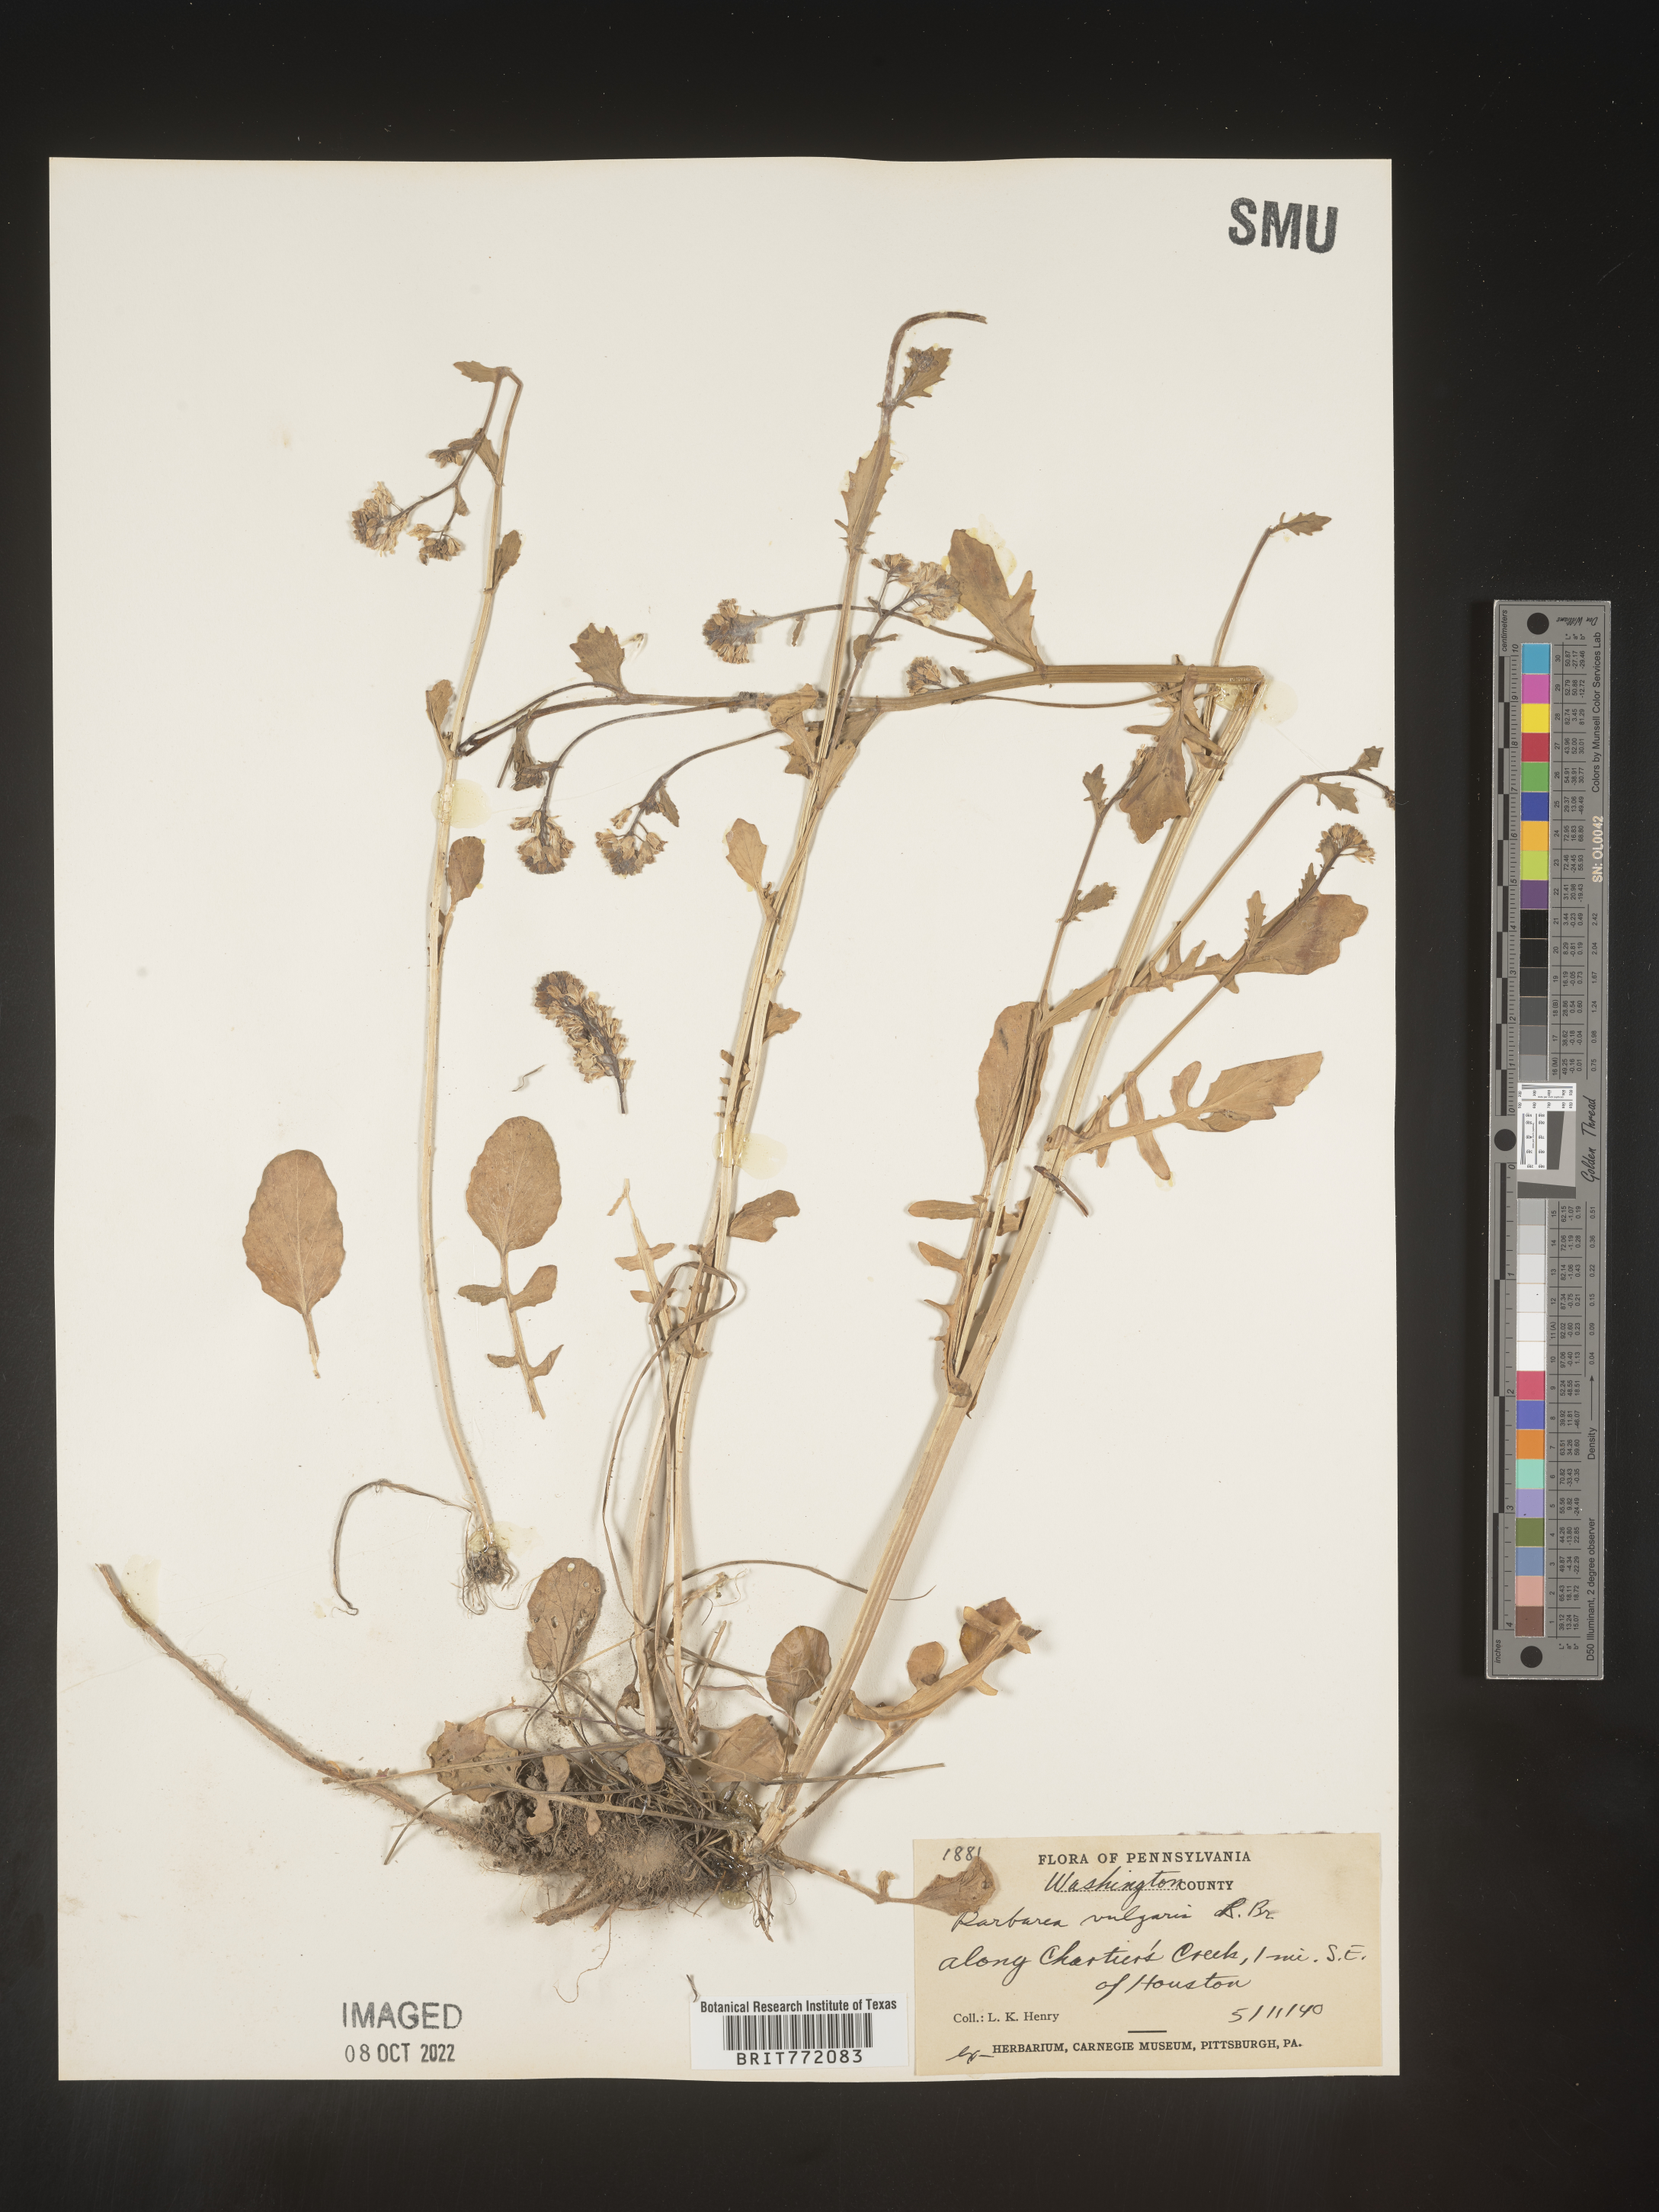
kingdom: Plantae
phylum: Tracheophyta
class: Magnoliopsida
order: Brassicales
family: Brassicaceae
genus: Barbarea
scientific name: Barbarea vulgaris
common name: Cressy-greens
